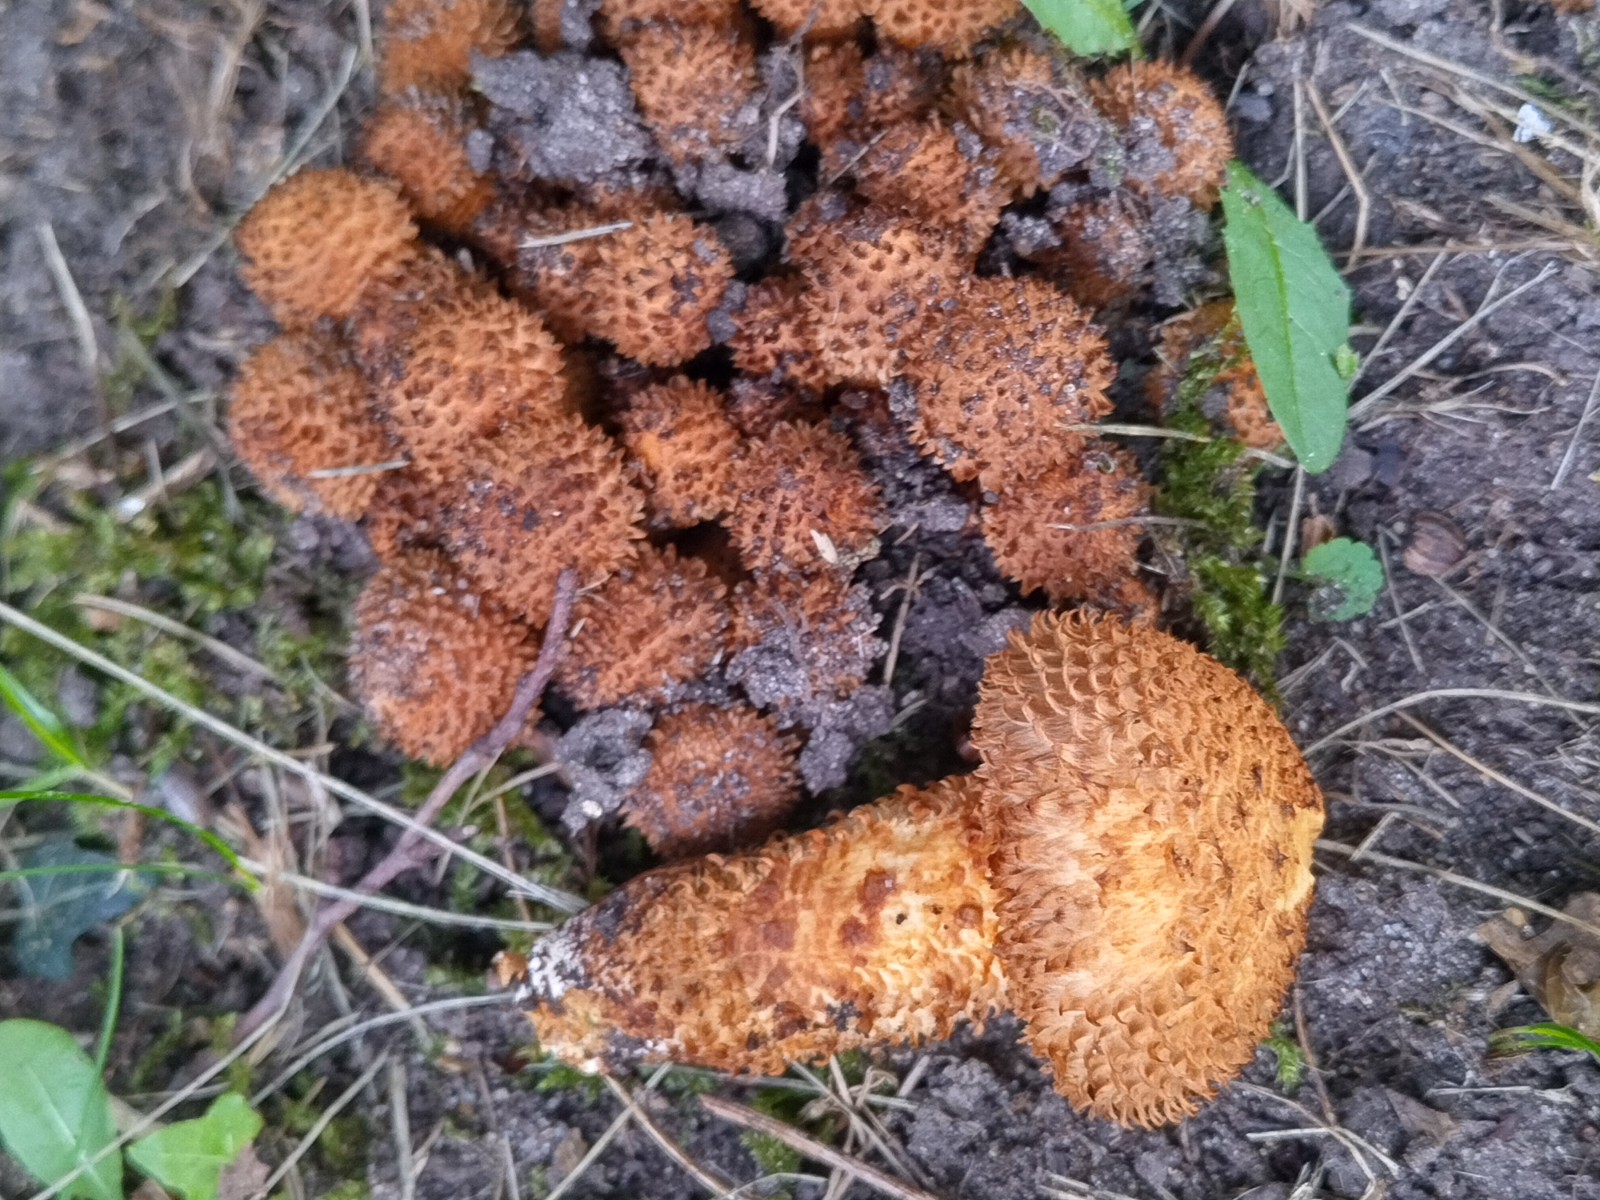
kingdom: Fungi
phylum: Basidiomycota
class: Agaricomycetes
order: Agaricales
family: Strophariaceae
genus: Pholiota
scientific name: Pholiota squarrosa
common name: krumskællet skælhat
